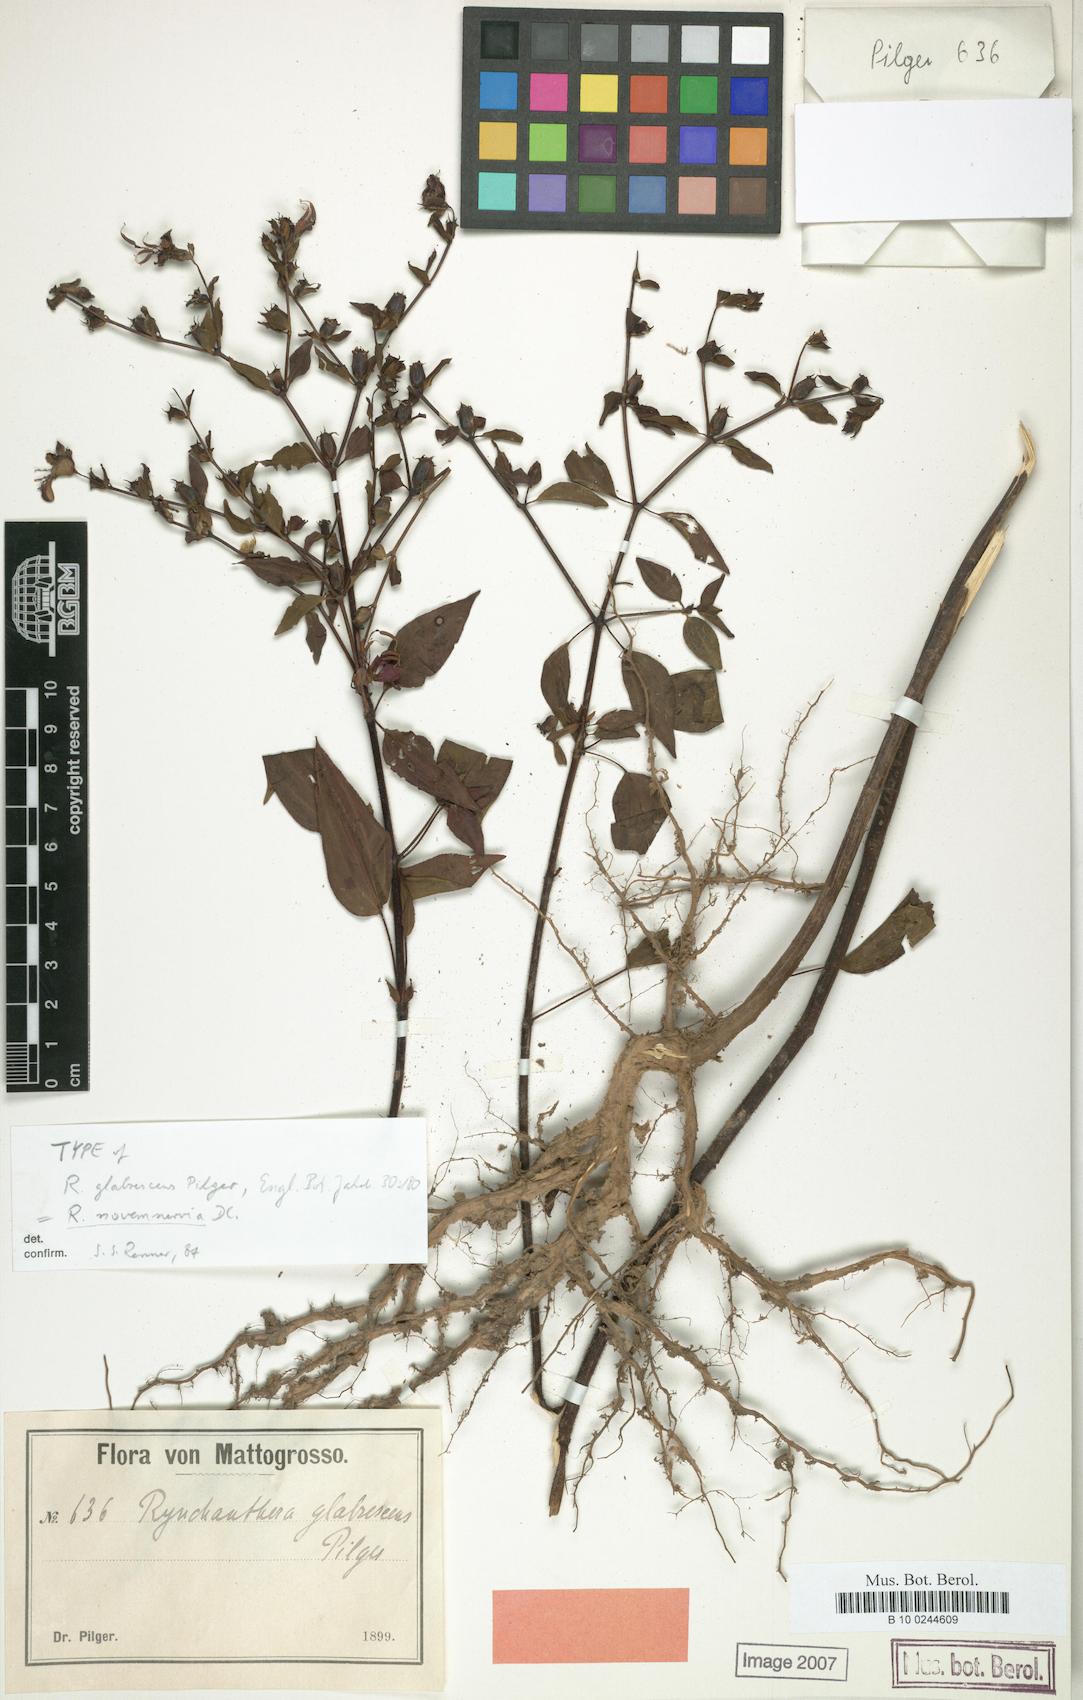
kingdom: Plantae
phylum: Tracheophyta
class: Magnoliopsida
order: Myrtales
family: Melastomataceae
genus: Rhynchanthera
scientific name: Rhynchanthera novemnervia
